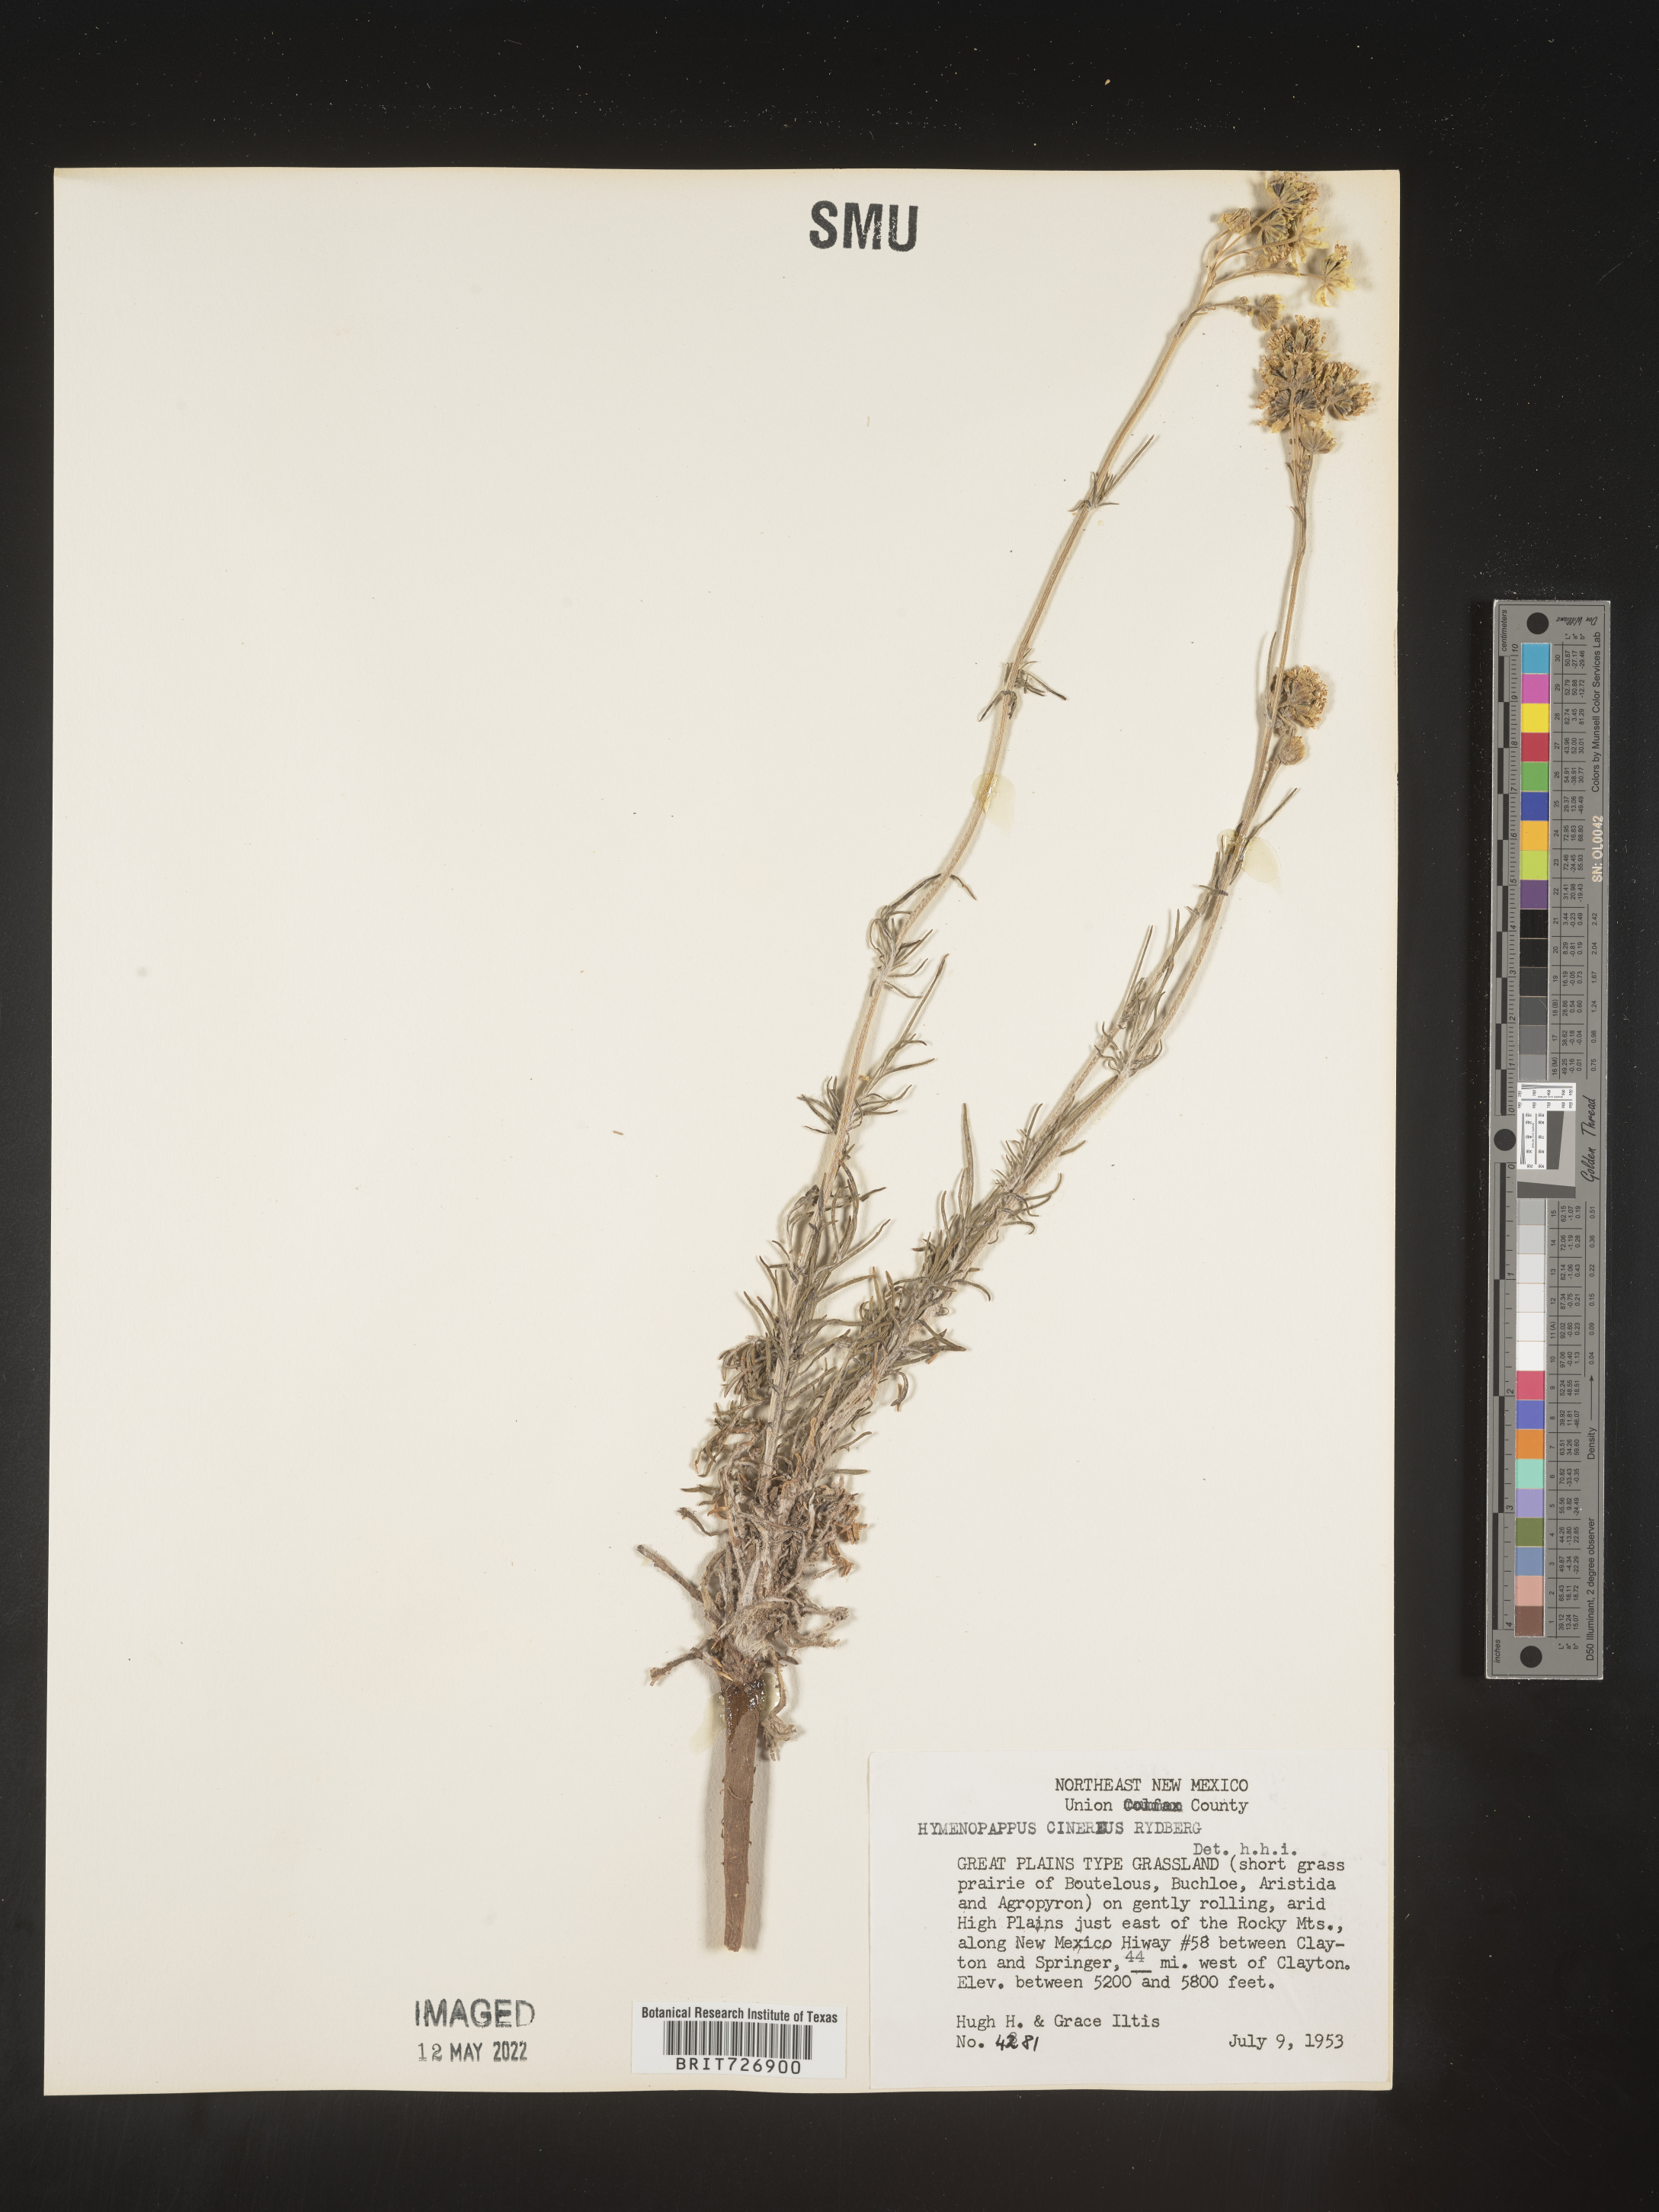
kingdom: Plantae
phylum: Tracheophyta
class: Magnoliopsida
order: Asterales
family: Asteraceae
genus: Hymenopappus
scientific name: Hymenopappus filifolius
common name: Columbia cutleaf
